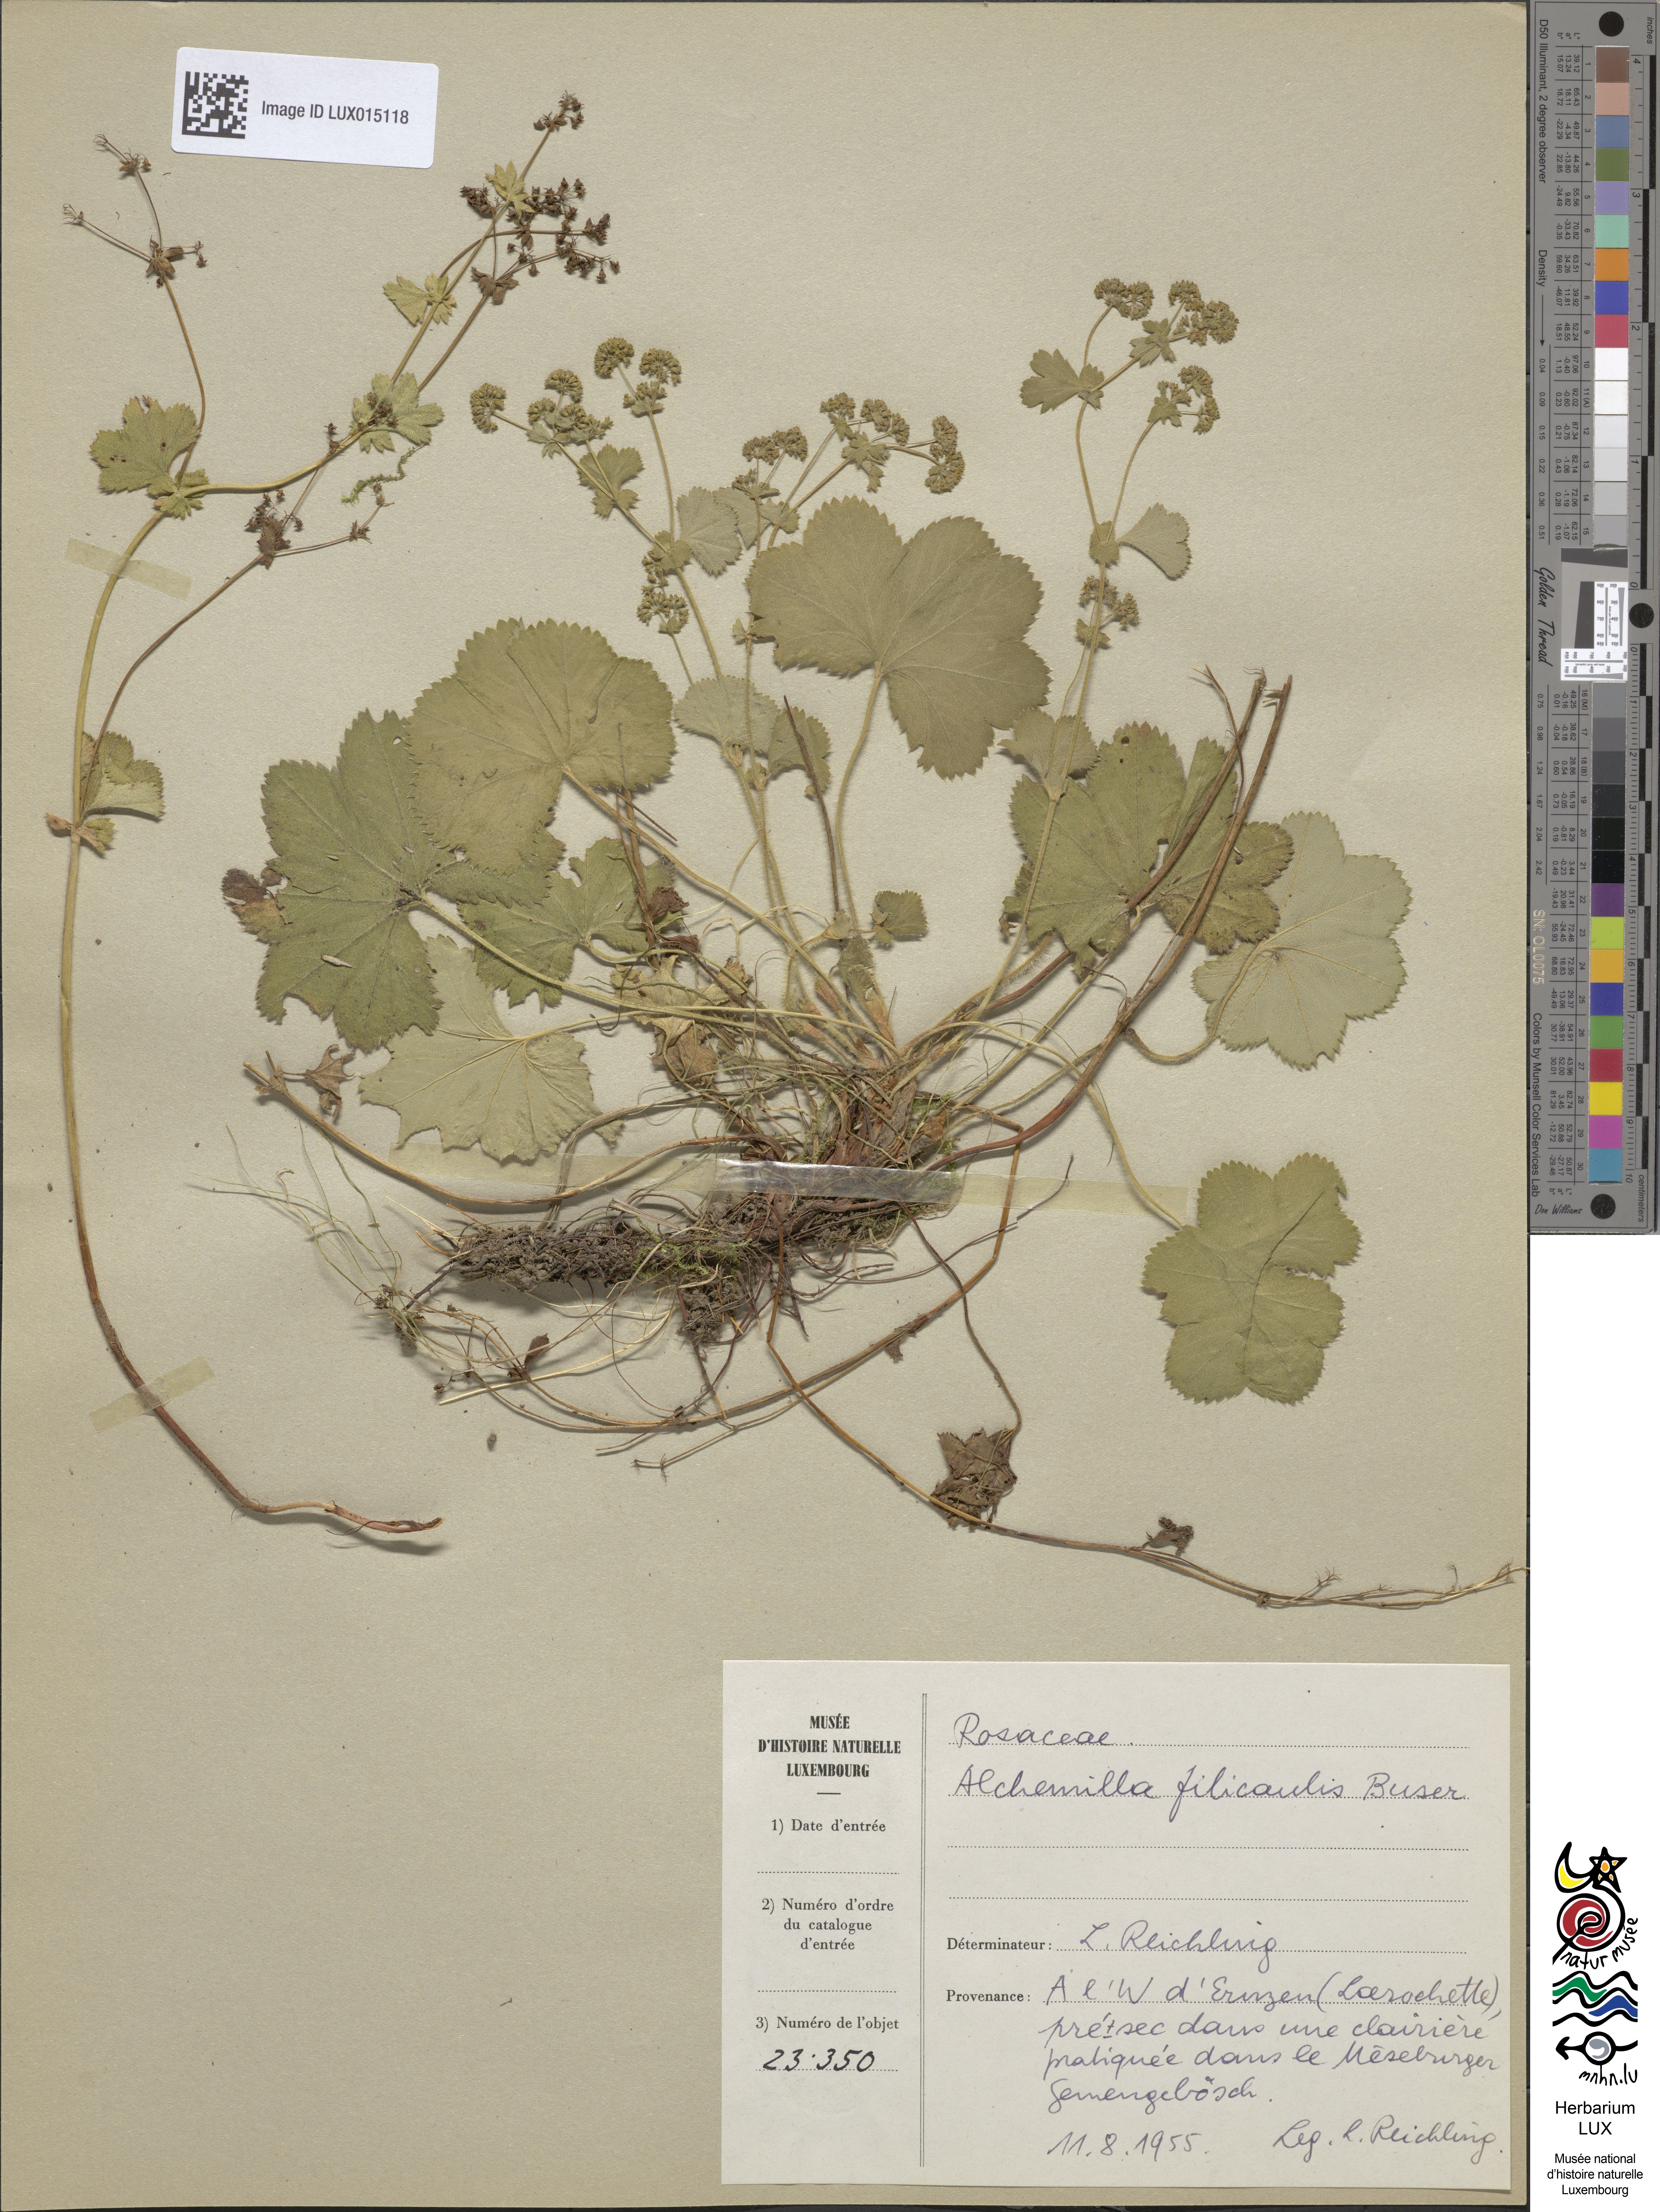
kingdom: Plantae
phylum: Tracheophyta
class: Magnoliopsida
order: Rosales
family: Rosaceae
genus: Alchemilla
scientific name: Alchemilla filicaulis
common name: Hairy lady's-mantle
